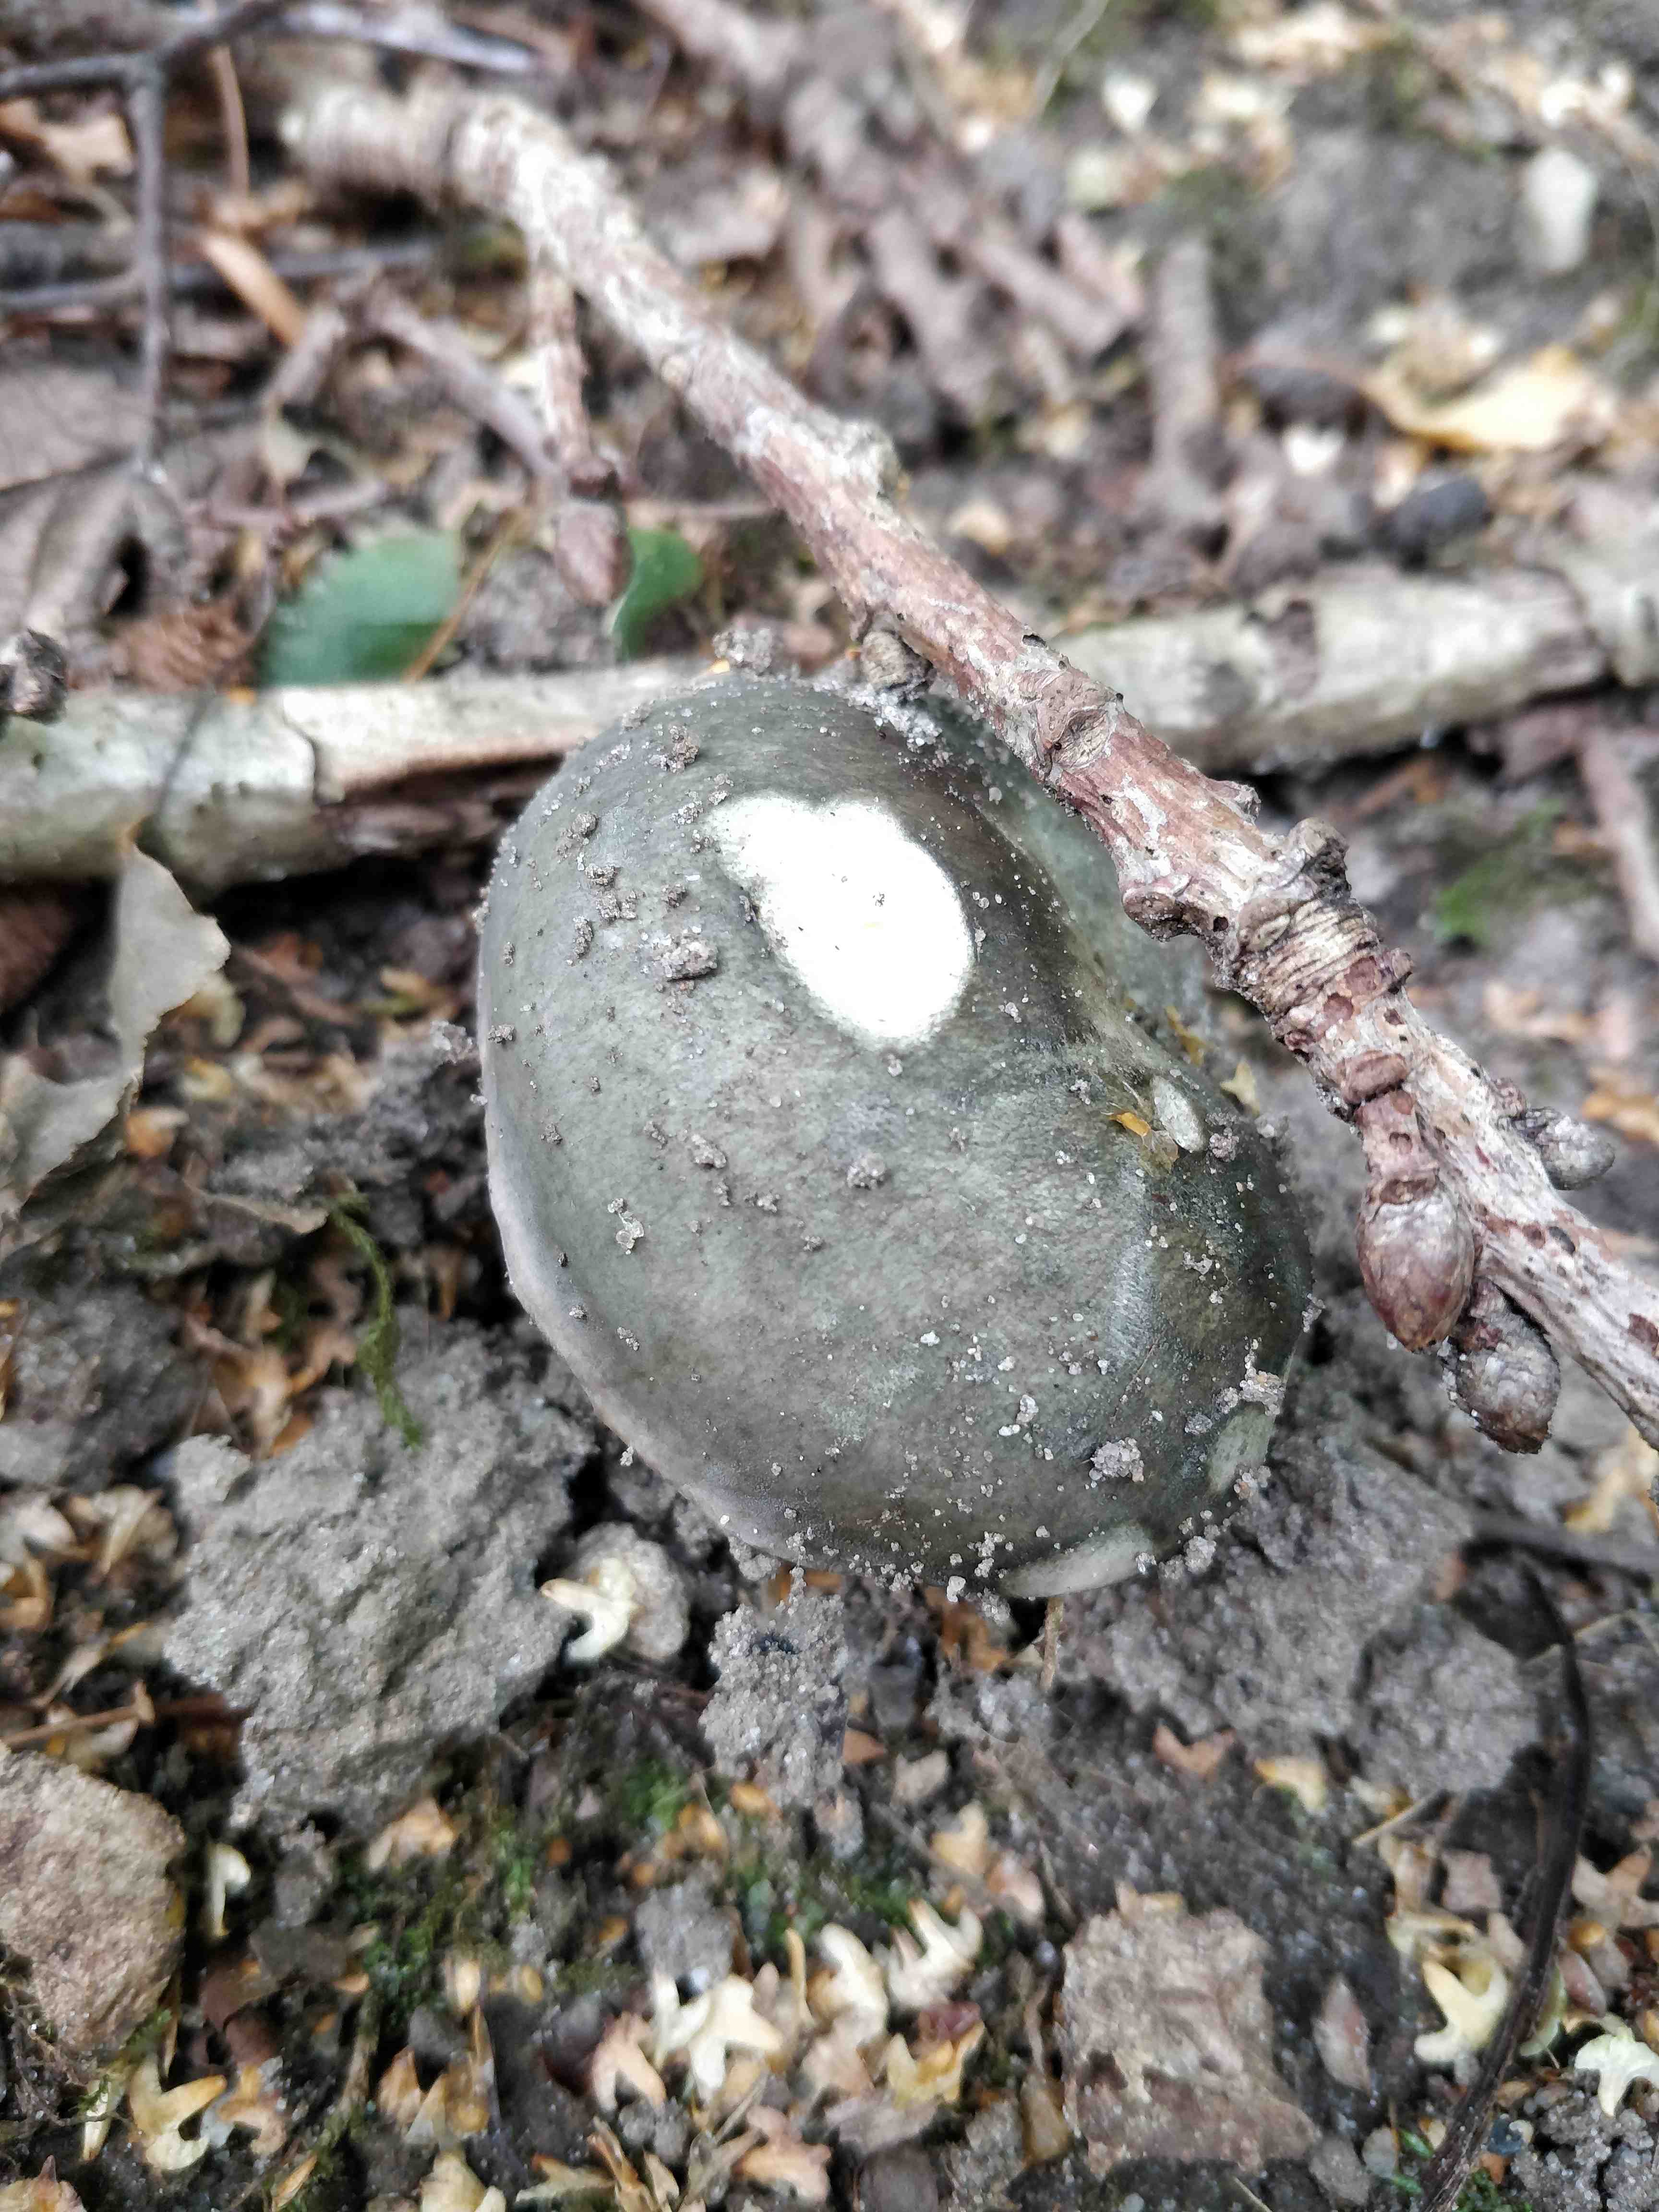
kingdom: Fungi
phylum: Basidiomycota
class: Agaricomycetes
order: Russulales
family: Russulaceae
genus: Russula
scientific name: Russula cyanoxantha
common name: broget skørhat
